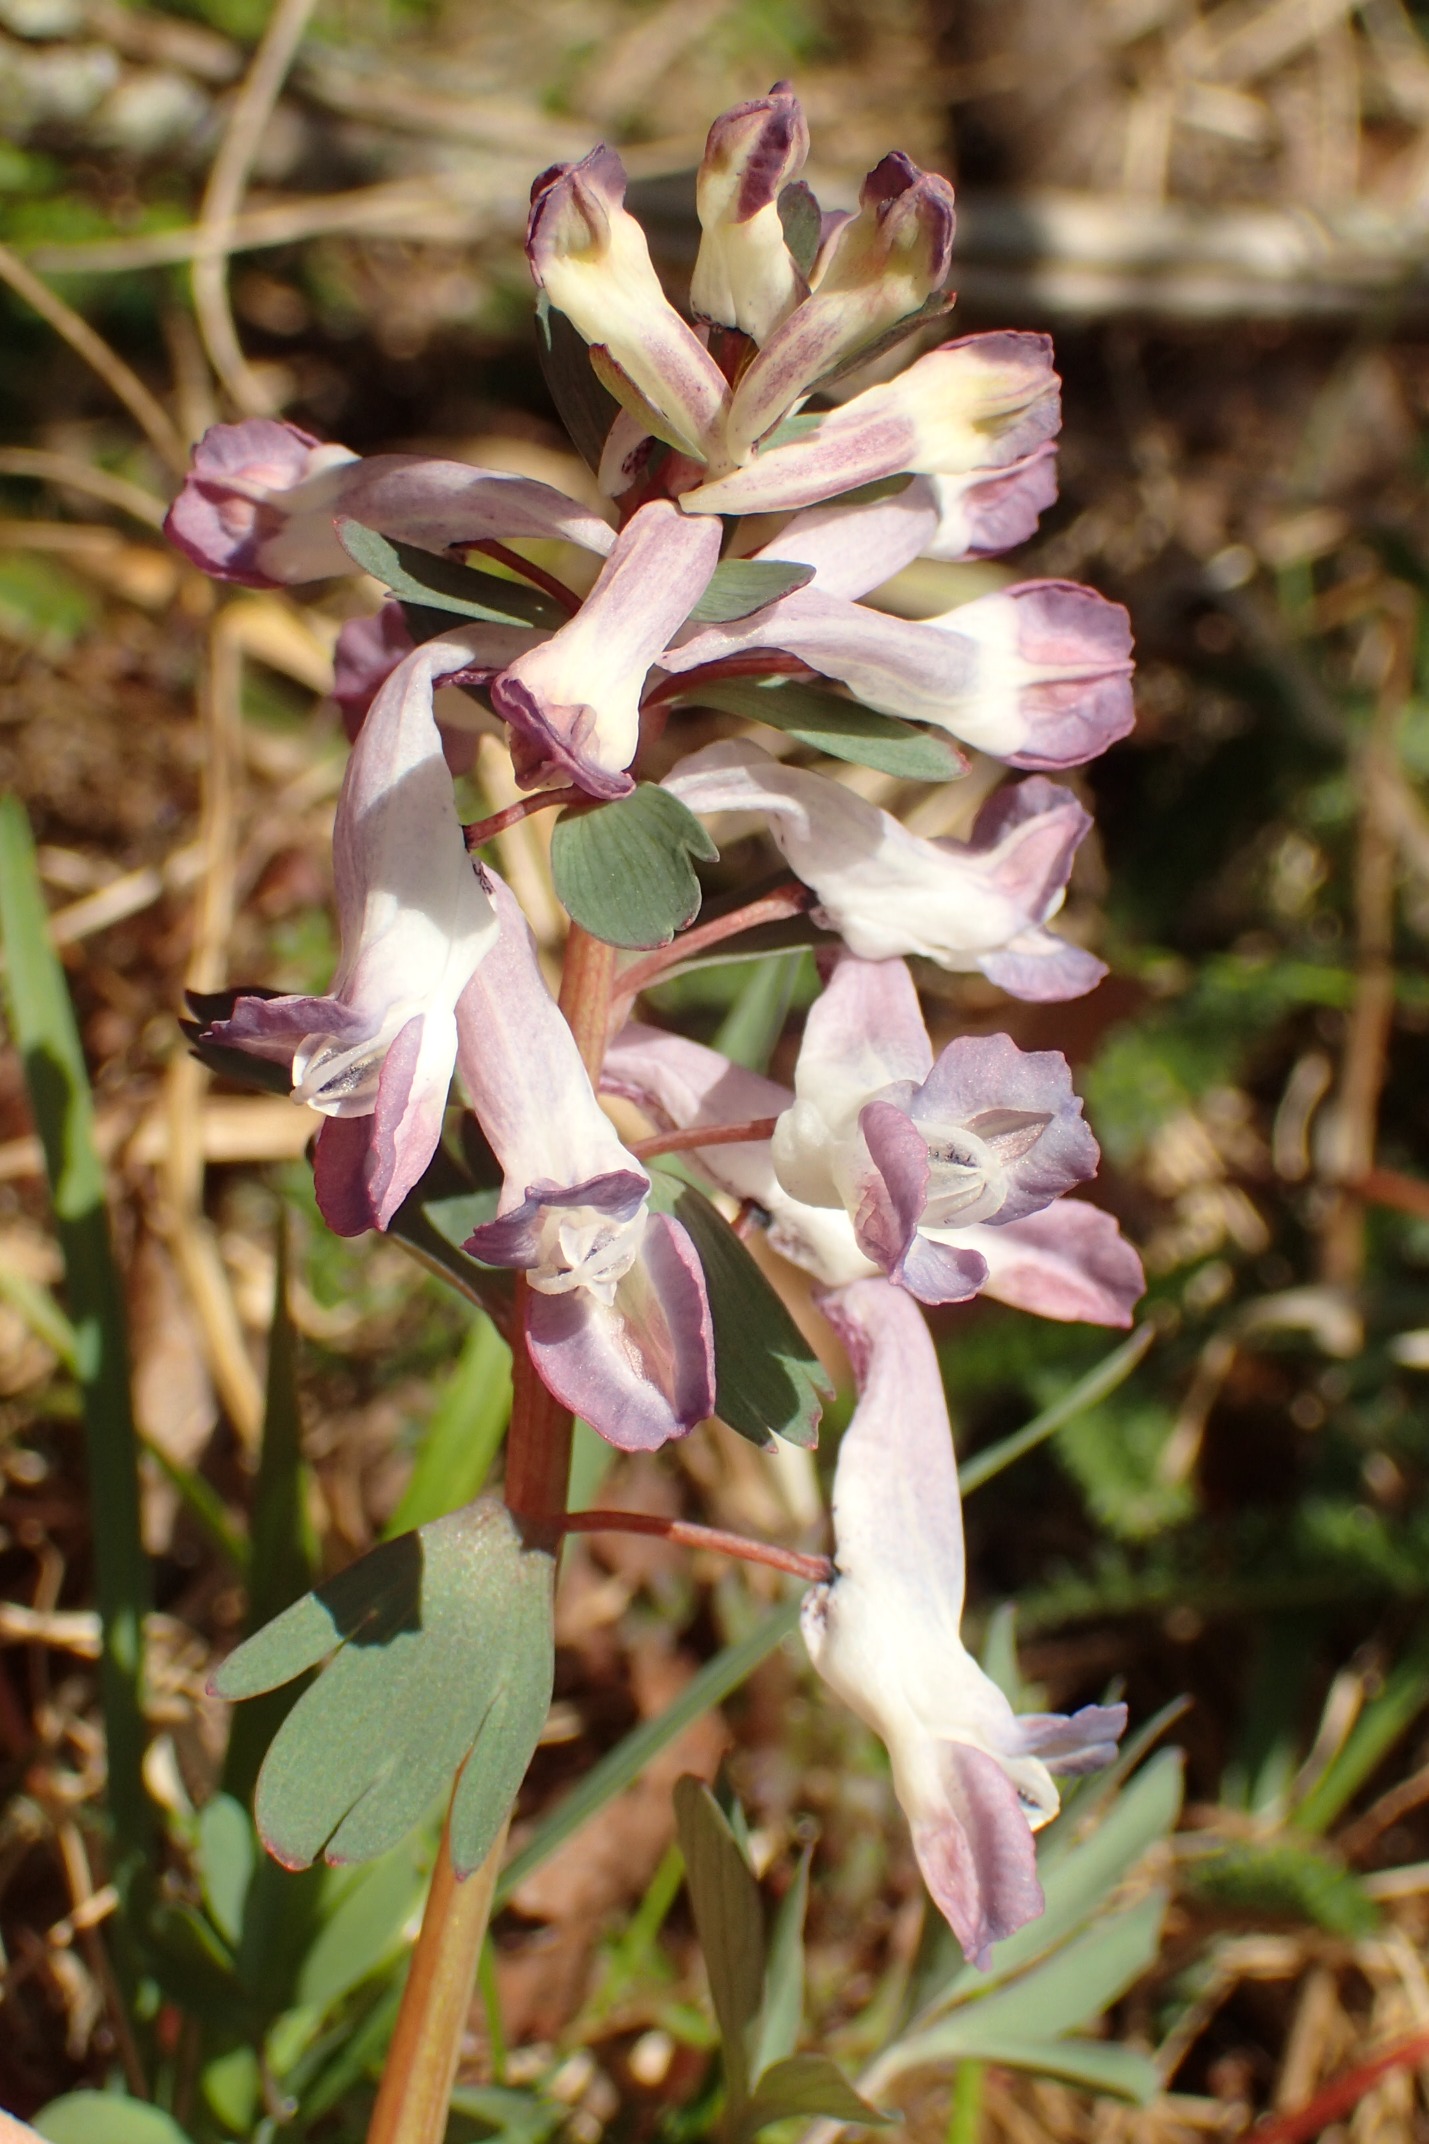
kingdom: Plantae
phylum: Tracheophyta
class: Magnoliopsida
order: Ranunculales
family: Papaveraceae
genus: Corydalis
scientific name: Corydalis solida
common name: Langstilket lærkespore
